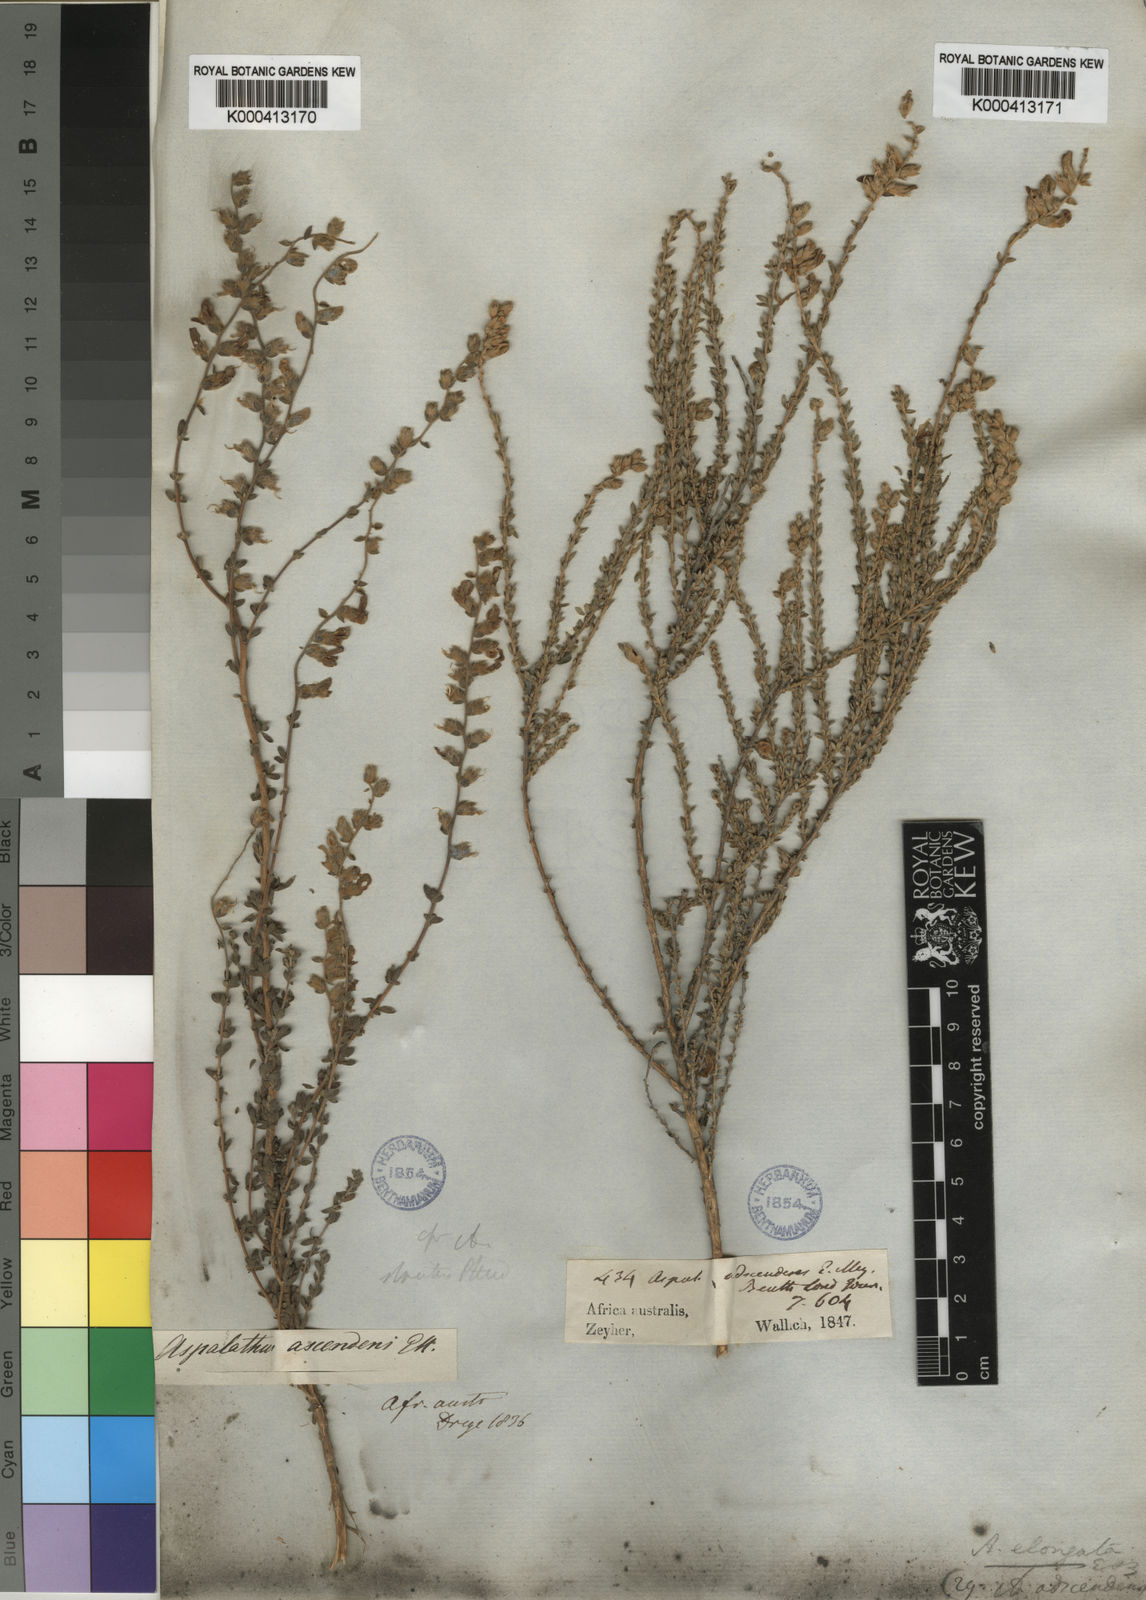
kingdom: Plantae
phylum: Tracheophyta
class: Magnoliopsida
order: Fabales
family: Fabaceae
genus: Aspalathus
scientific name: Aspalathus quinquefolia
